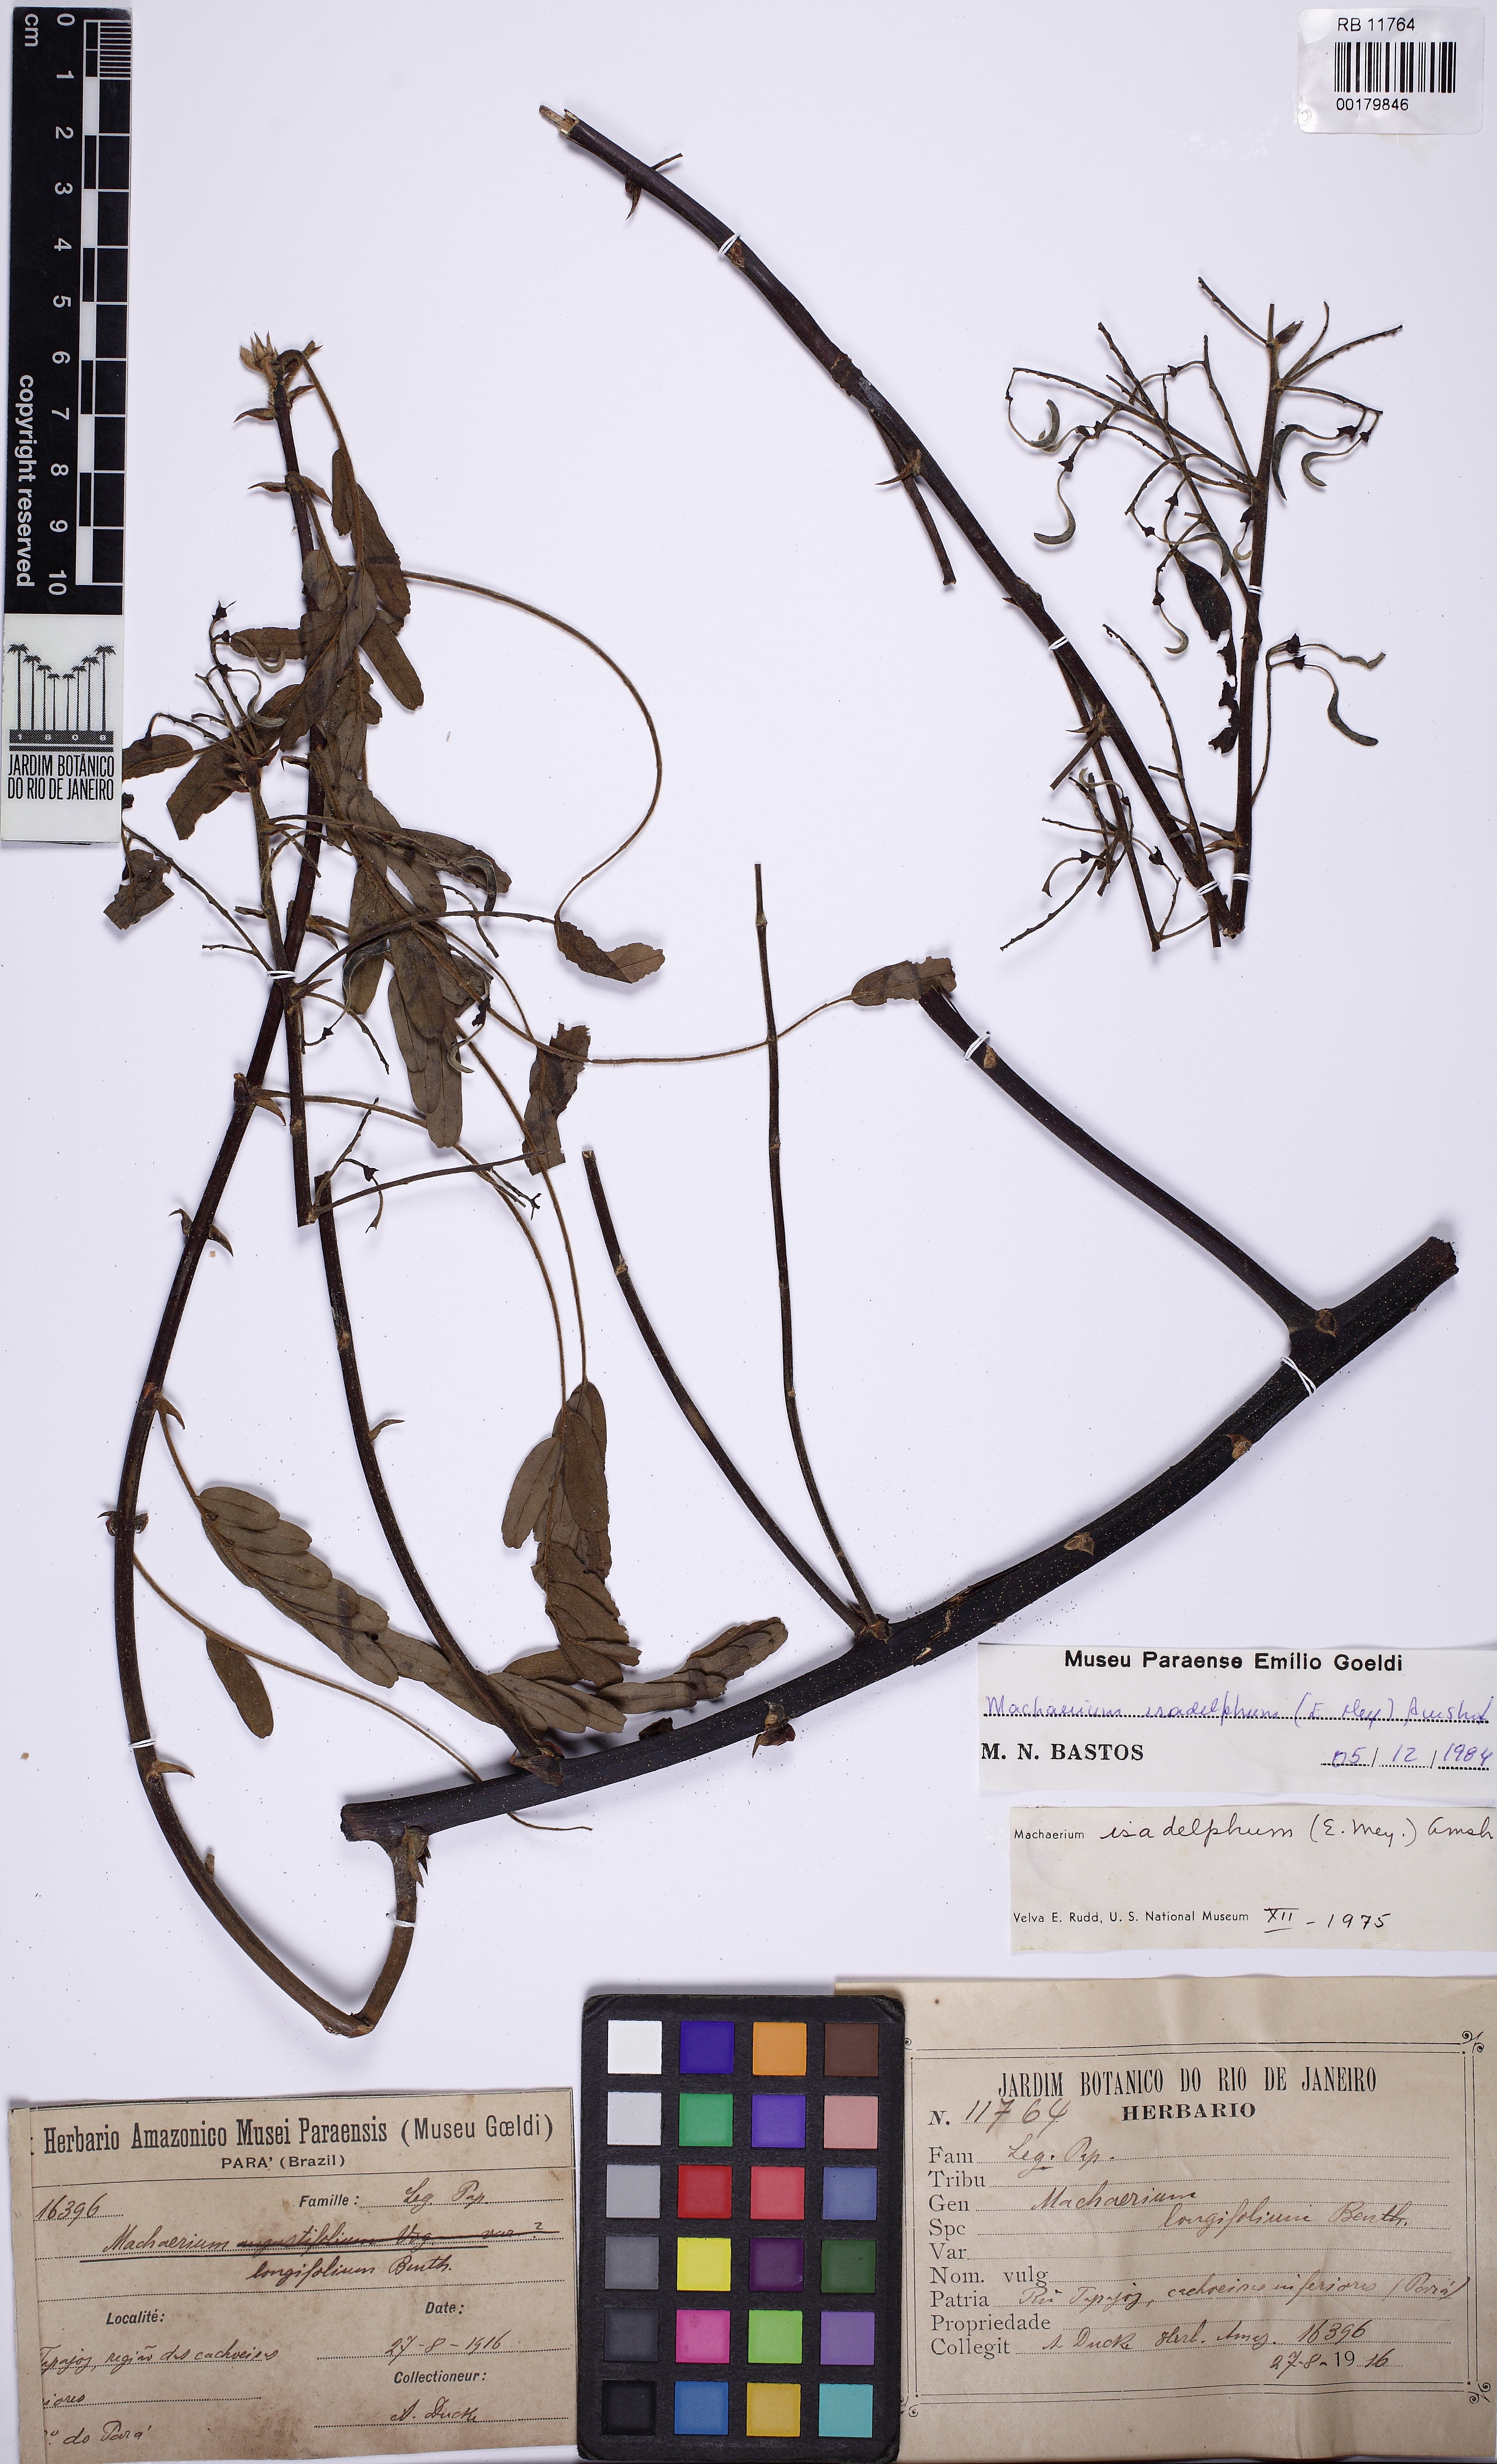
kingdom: Plantae
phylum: Tracheophyta
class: Magnoliopsida
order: Fabales
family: Fabaceae
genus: Machaerium
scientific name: Machaerium isadelphum
